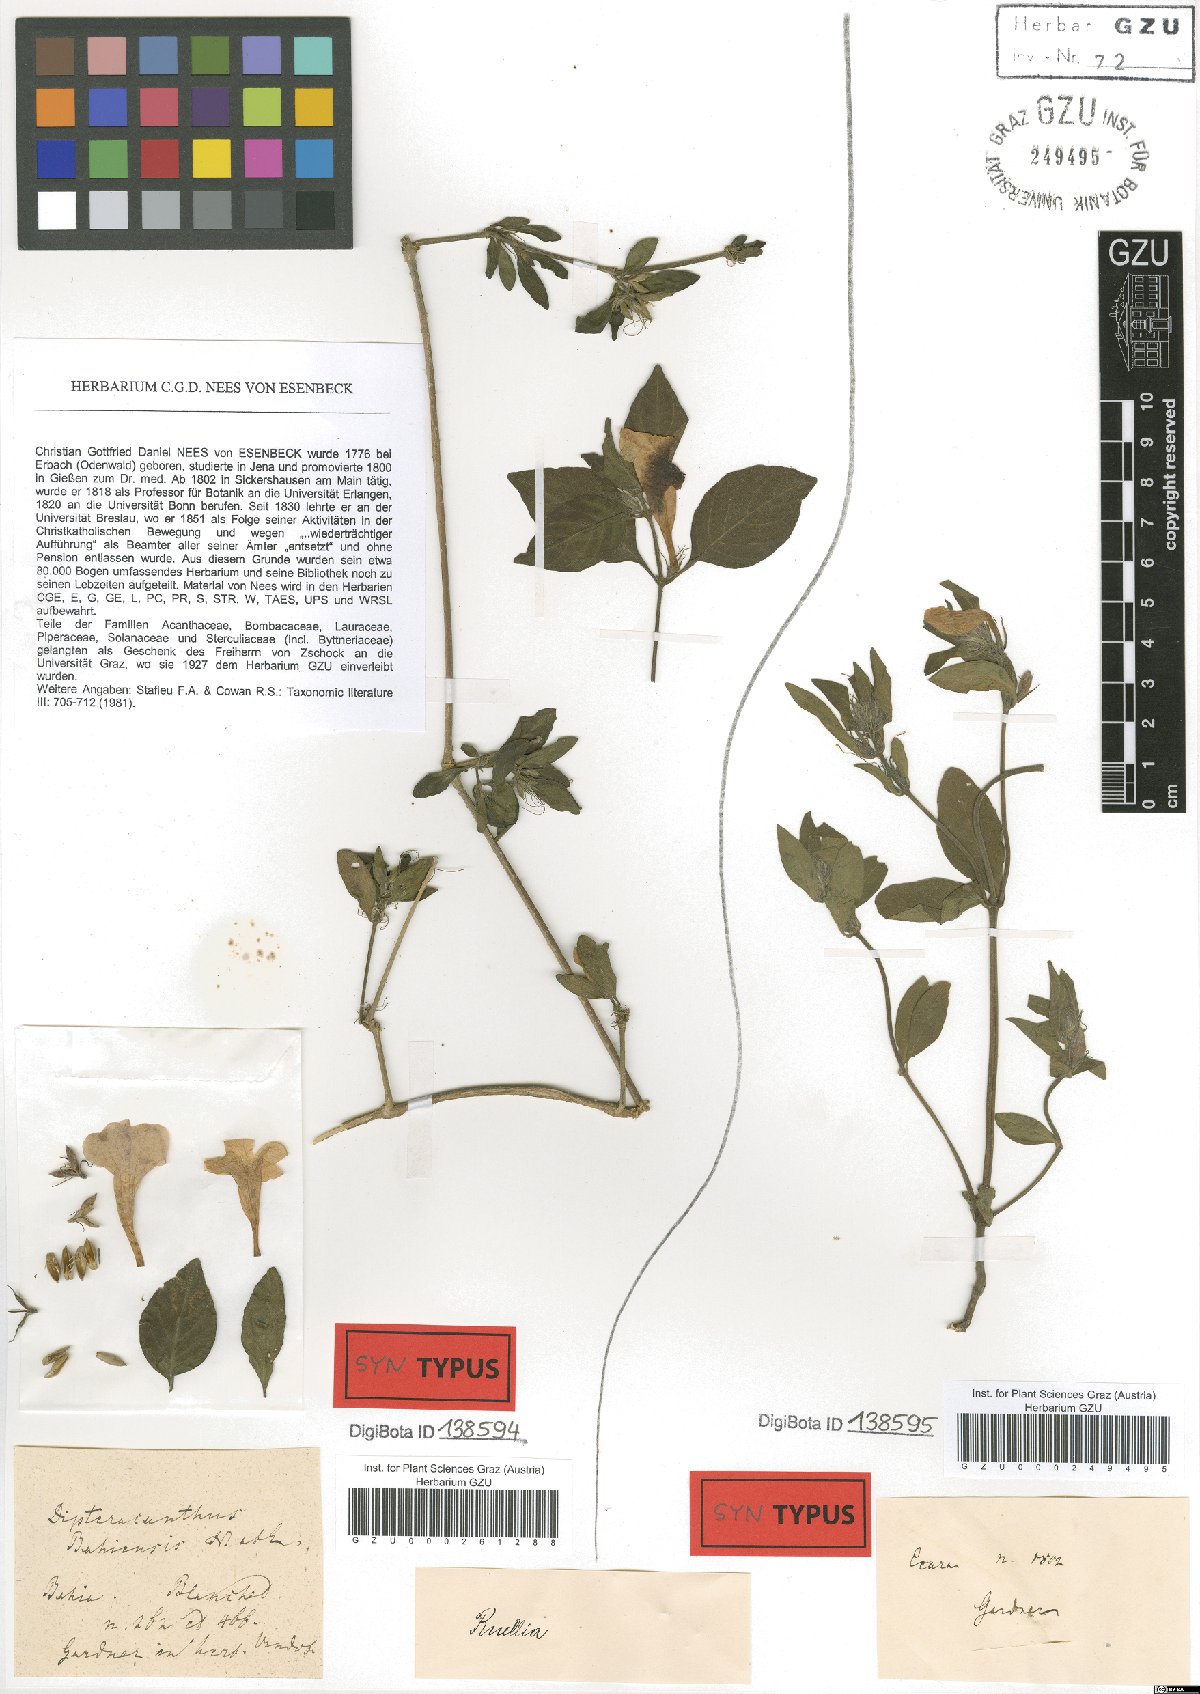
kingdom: Plantae
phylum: Tracheophyta
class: Magnoliopsida
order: Lamiales
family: Acanthaceae
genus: Ruellia
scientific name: Ruellia bahiensis
